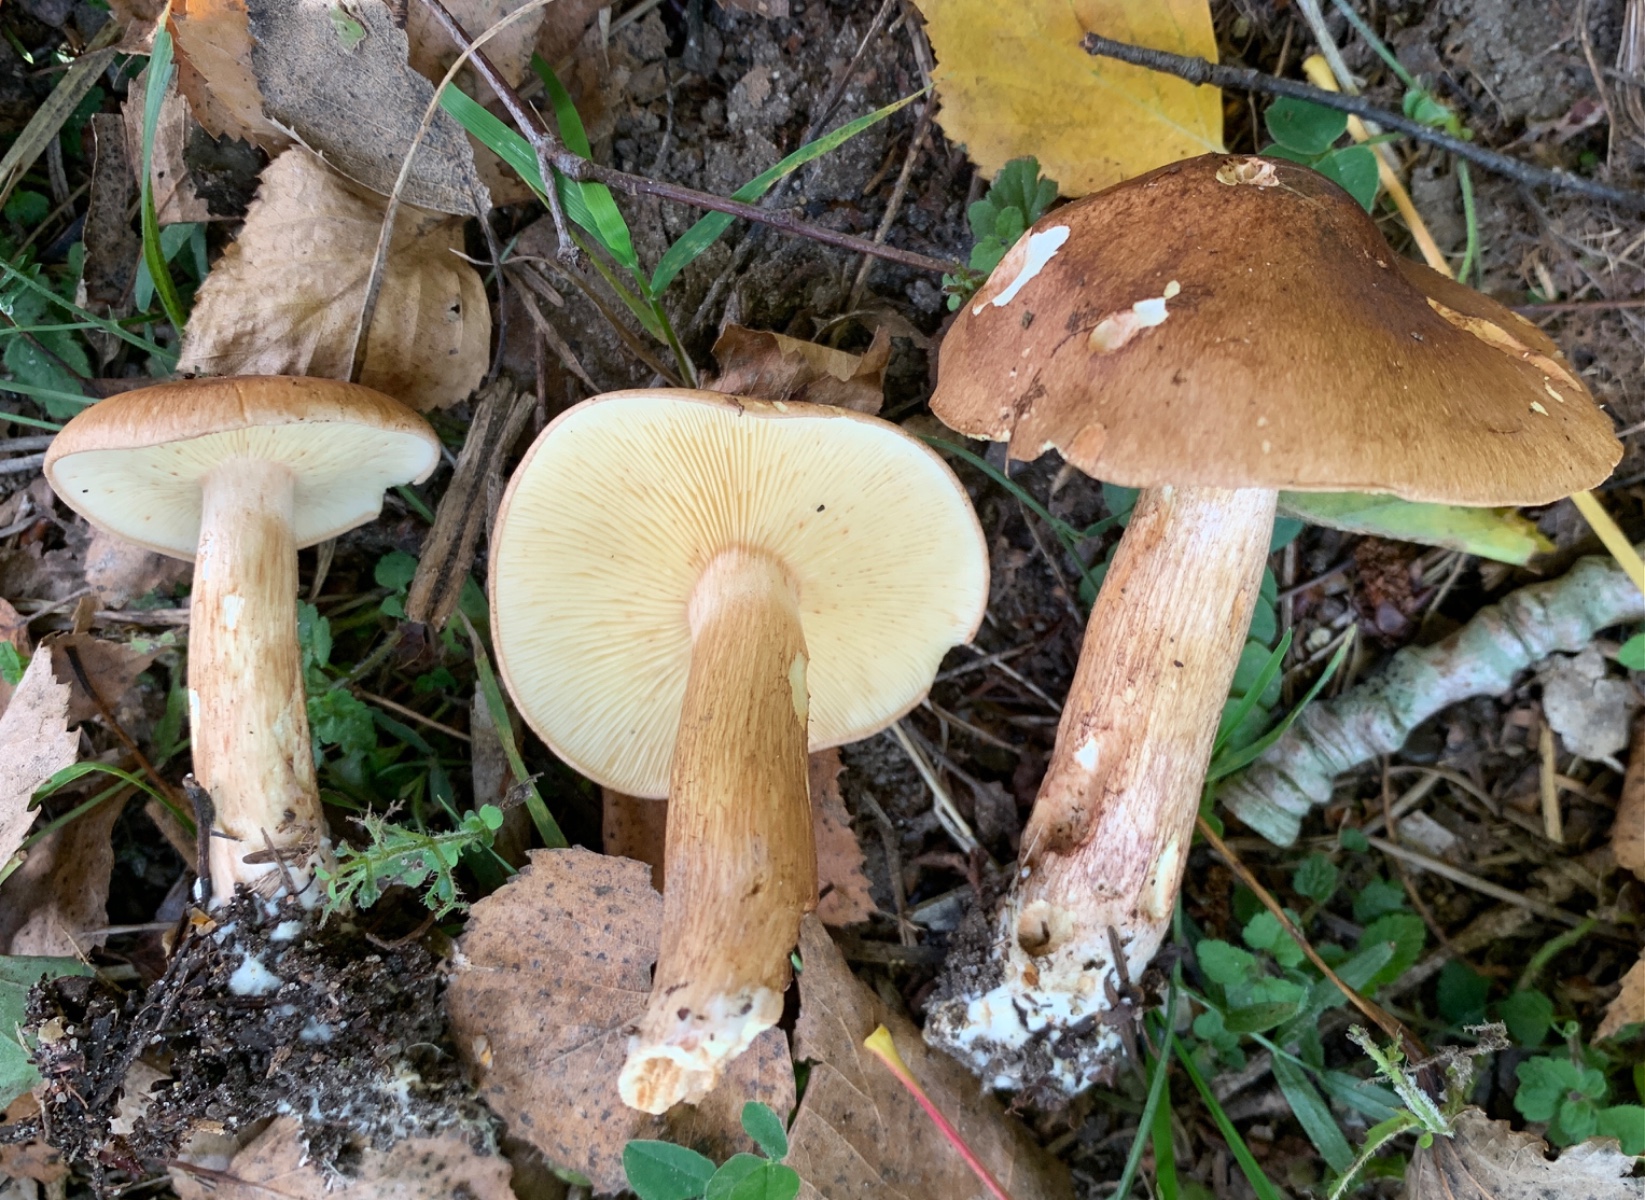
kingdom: Fungi
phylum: Basidiomycota
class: Agaricomycetes
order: Agaricales
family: Tricholomataceae
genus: Tricholoma
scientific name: Tricholoma fulvum
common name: birke-ridderhat
